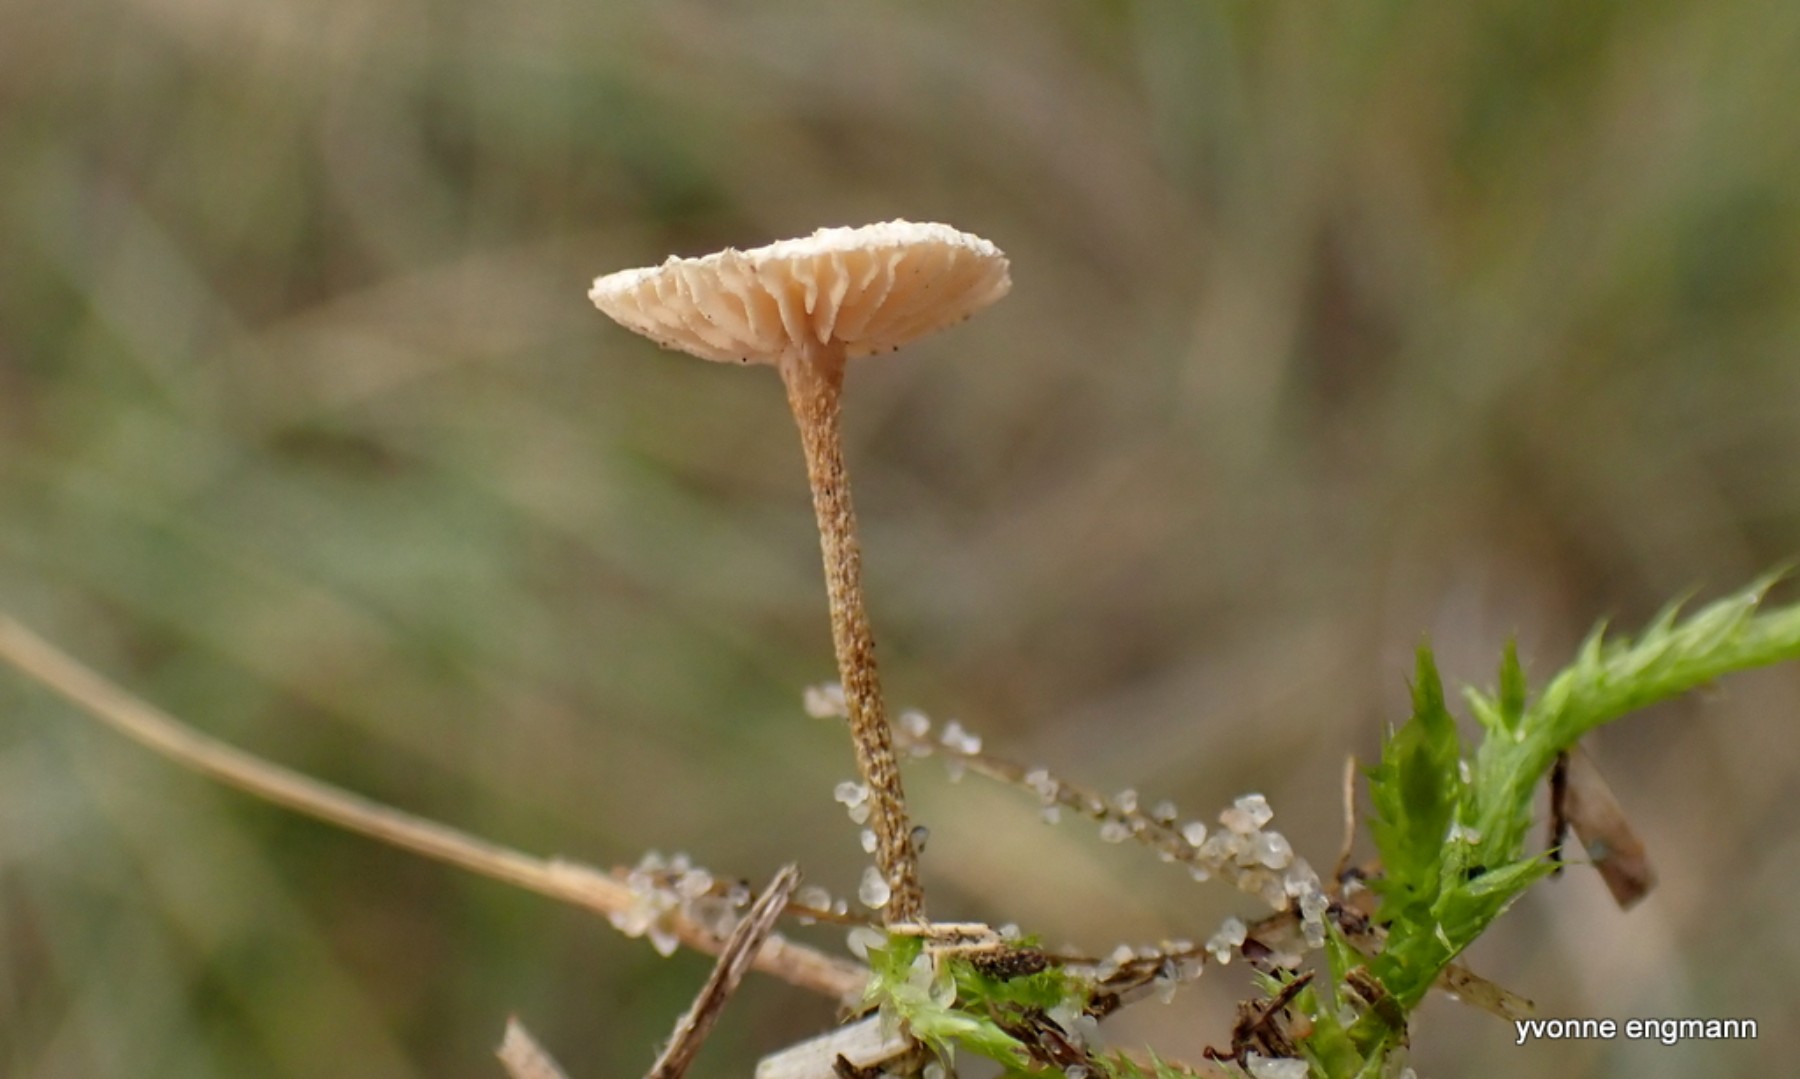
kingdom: Fungi
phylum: Basidiomycota
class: Agaricomycetes
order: Agaricales
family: Marasmiaceae
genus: Crinipellis
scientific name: Crinipellis scabella
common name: børstefod
